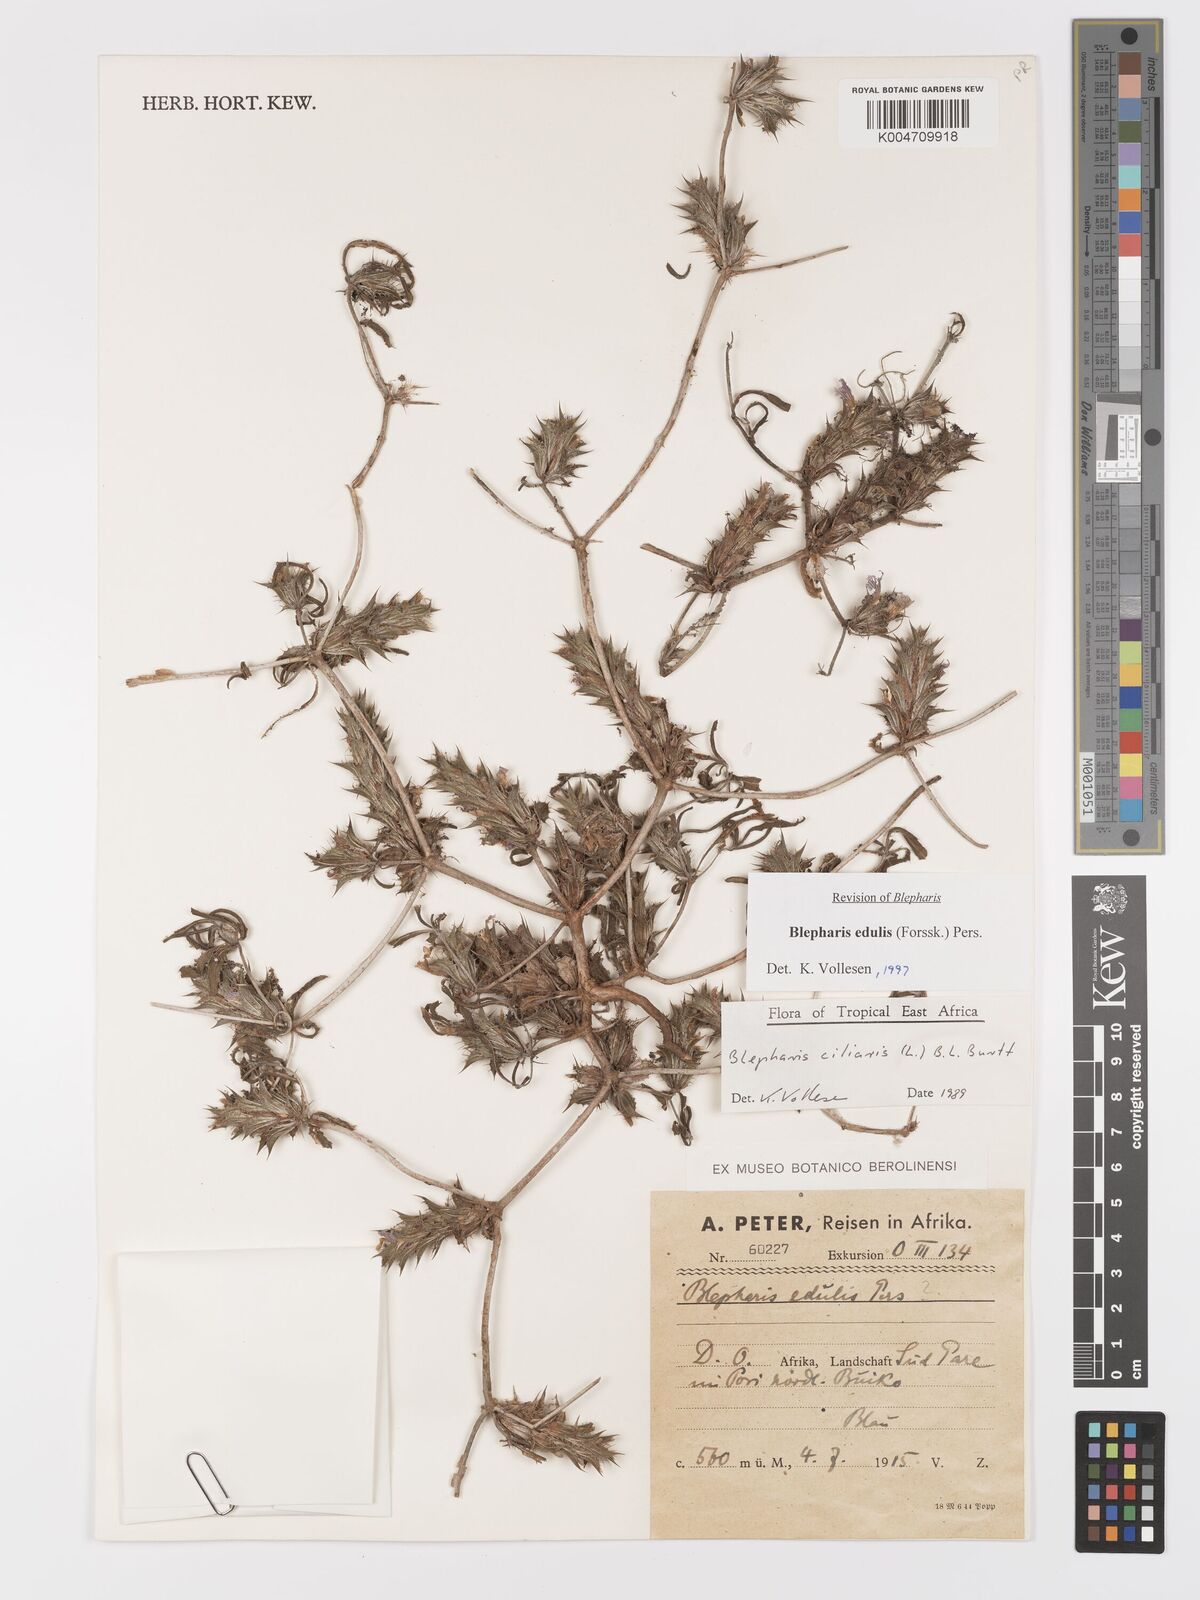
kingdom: Plantae
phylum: Tracheophyta
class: Magnoliopsida
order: Lamiales
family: Acanthaceae
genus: Blepharis
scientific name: Blepharis edulis
